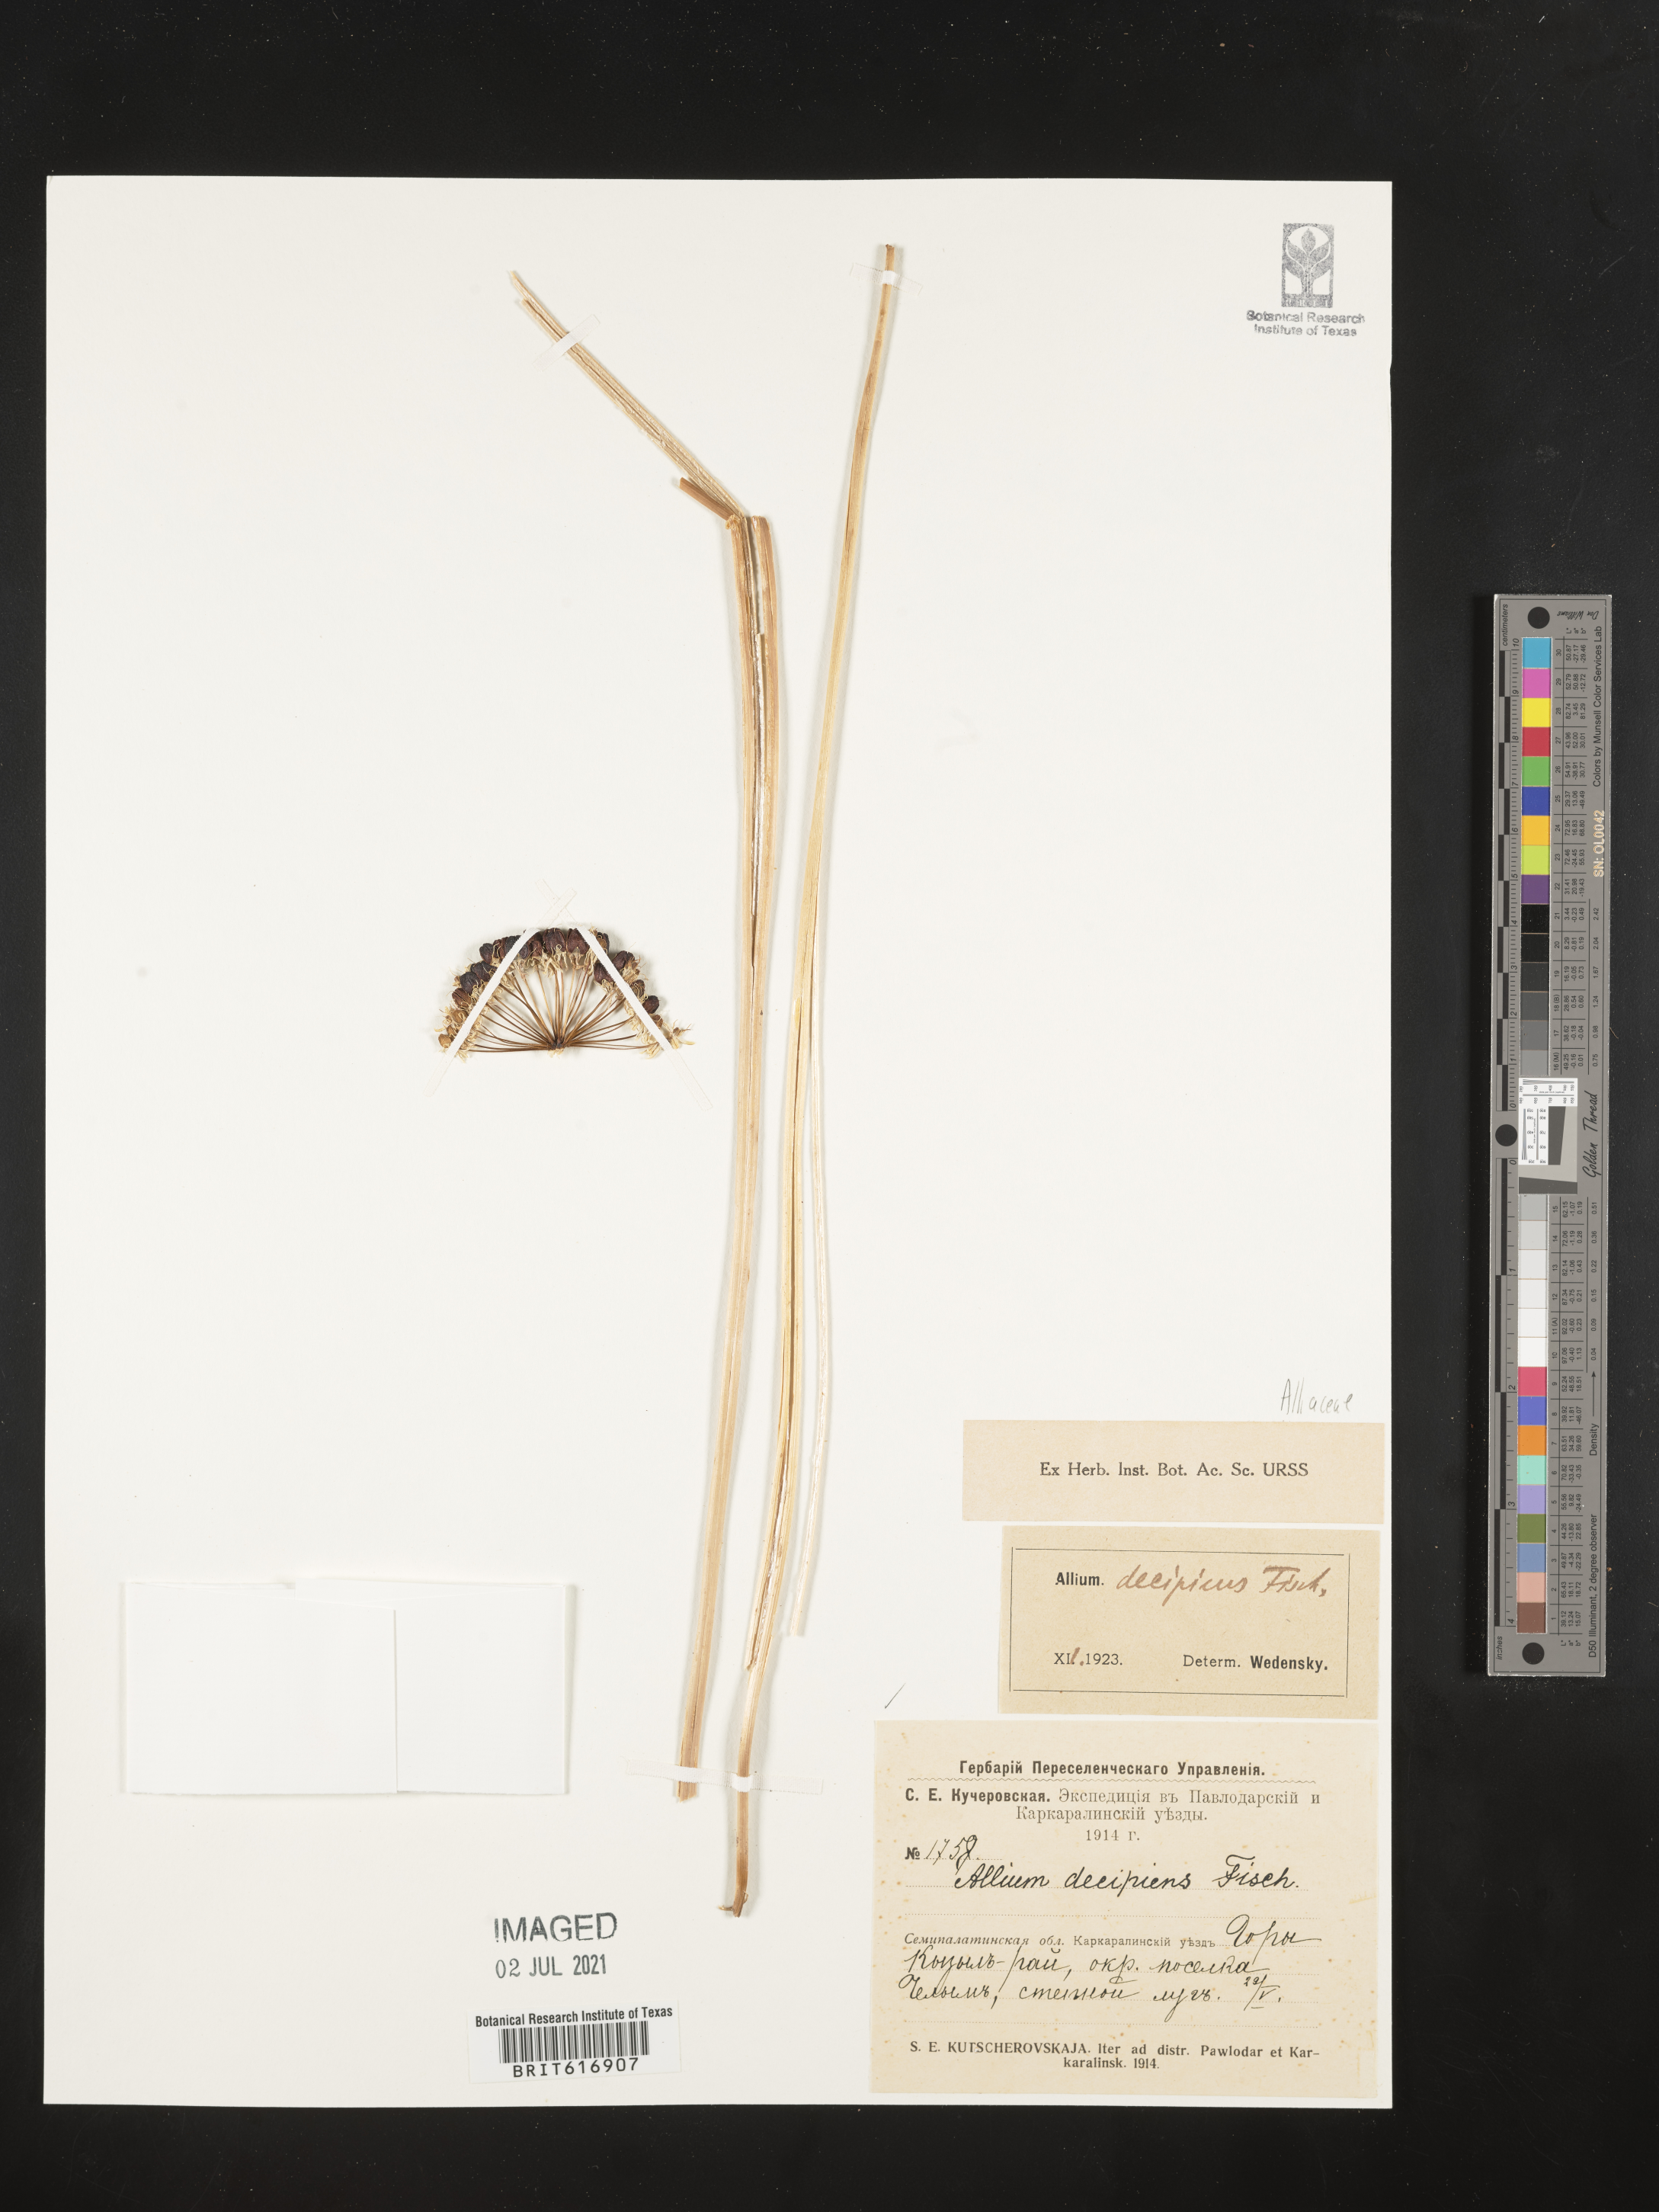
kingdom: Plantae
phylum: Tracheophyta
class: Liliopsida
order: Asparagales
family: Amaryllidaceae
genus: Allium
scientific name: Allium decipiens
